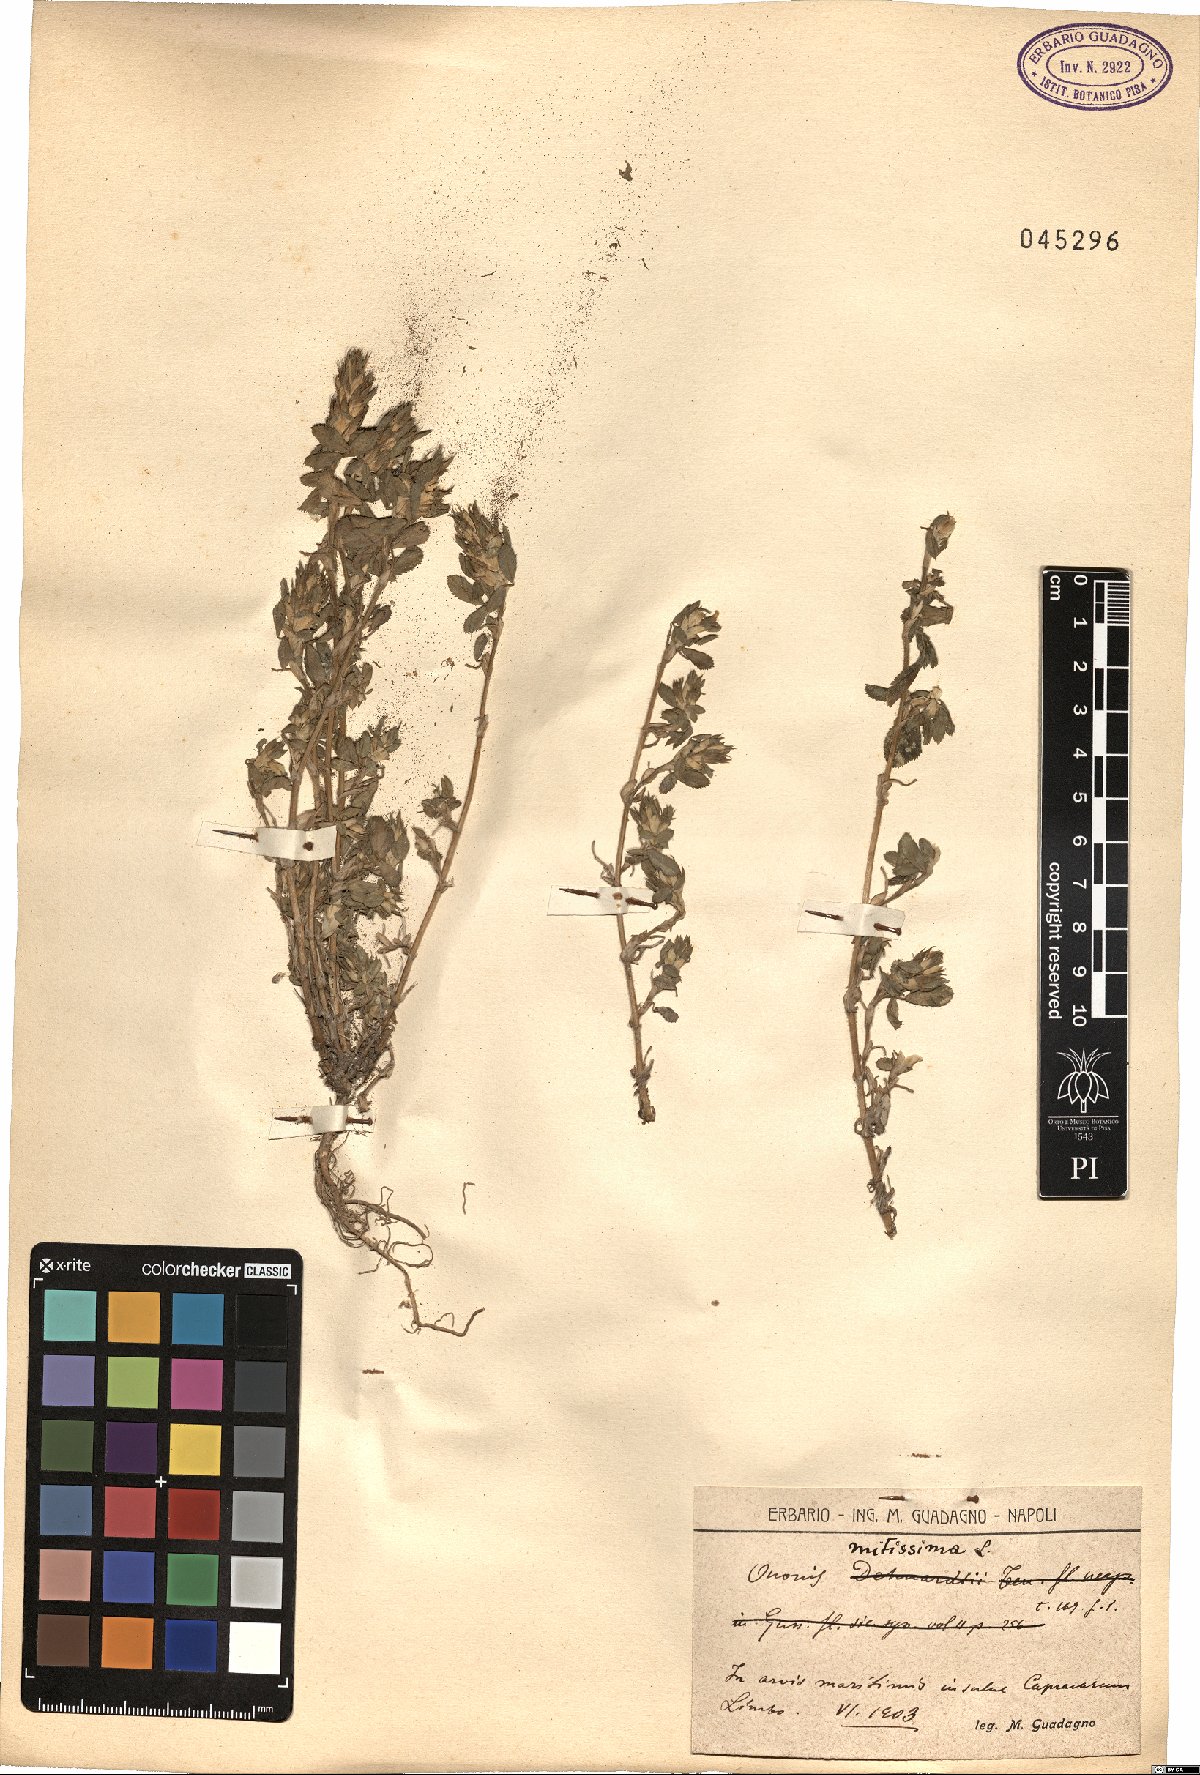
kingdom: Plantae
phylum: Tracheophyta
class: Magnoliopsida
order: Fabales
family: Fabaceae
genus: Ononis
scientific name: Ononis mitissima
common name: Mediterranean restharrow
